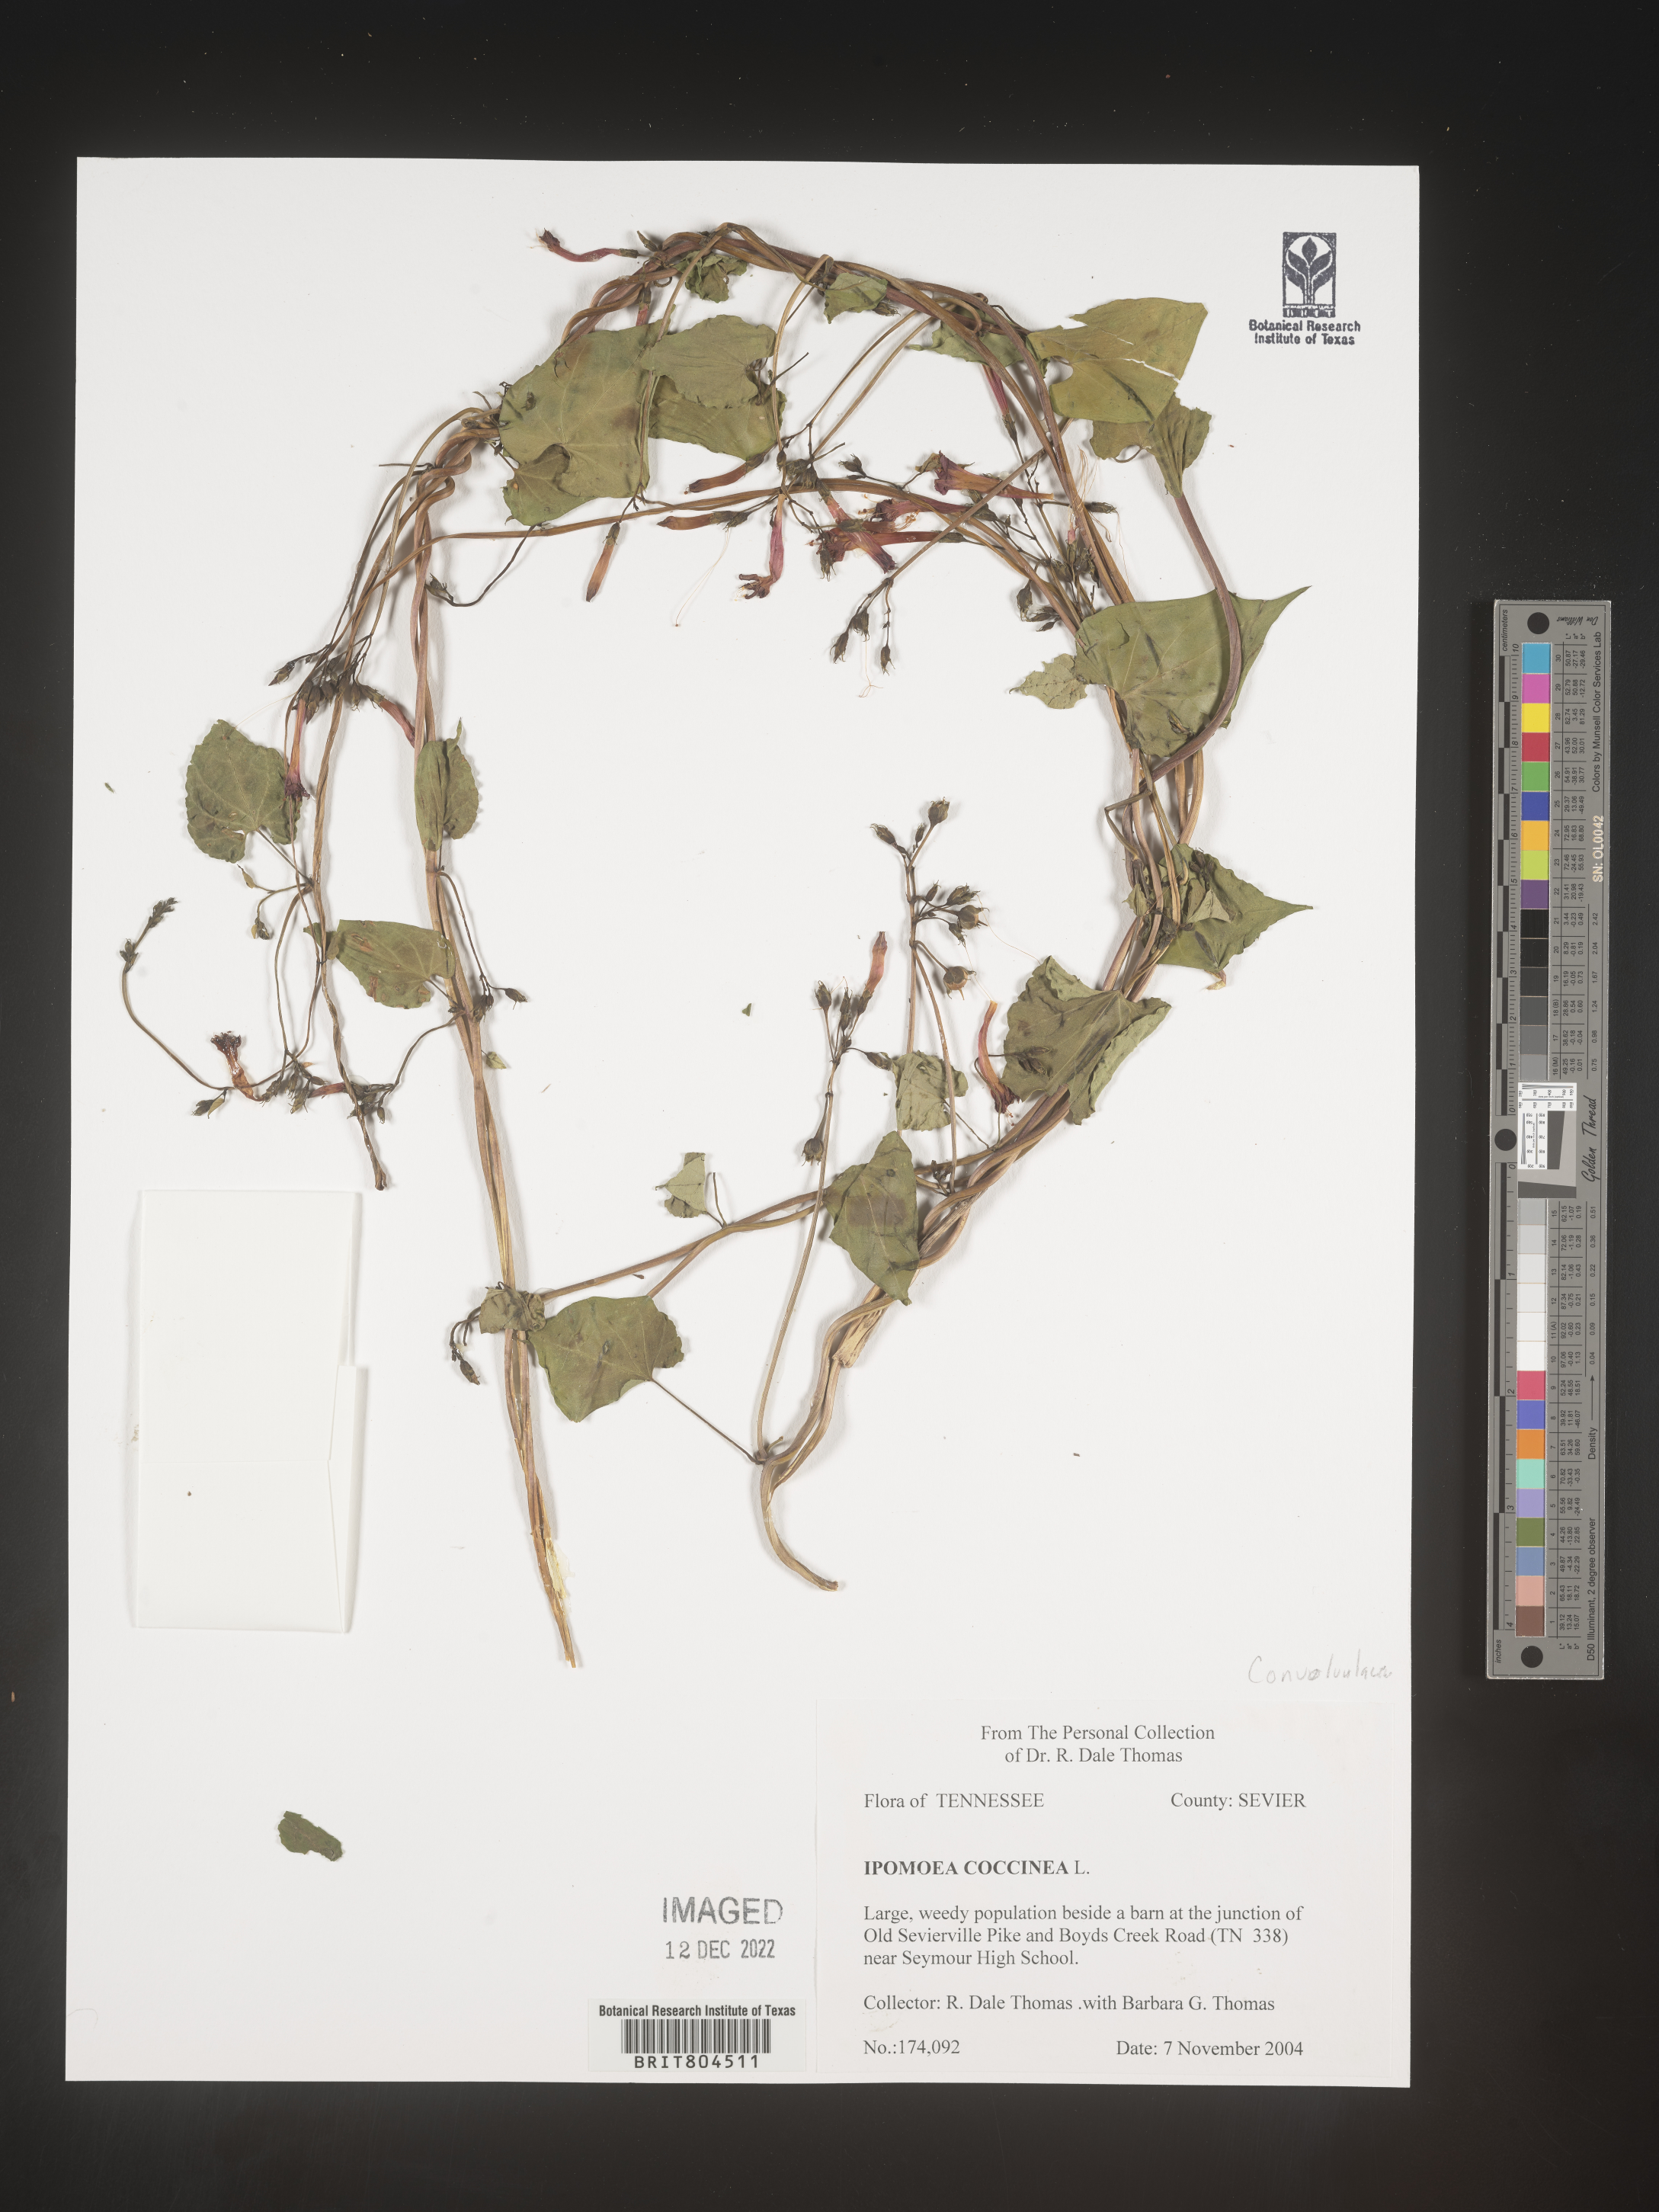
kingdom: Plantae
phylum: Tracheophyta
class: Magnoliopsida
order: Solanales
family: Convolvulaceae
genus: Ipomoea
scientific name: Ipomoea coccinea
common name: Red morning-glory
